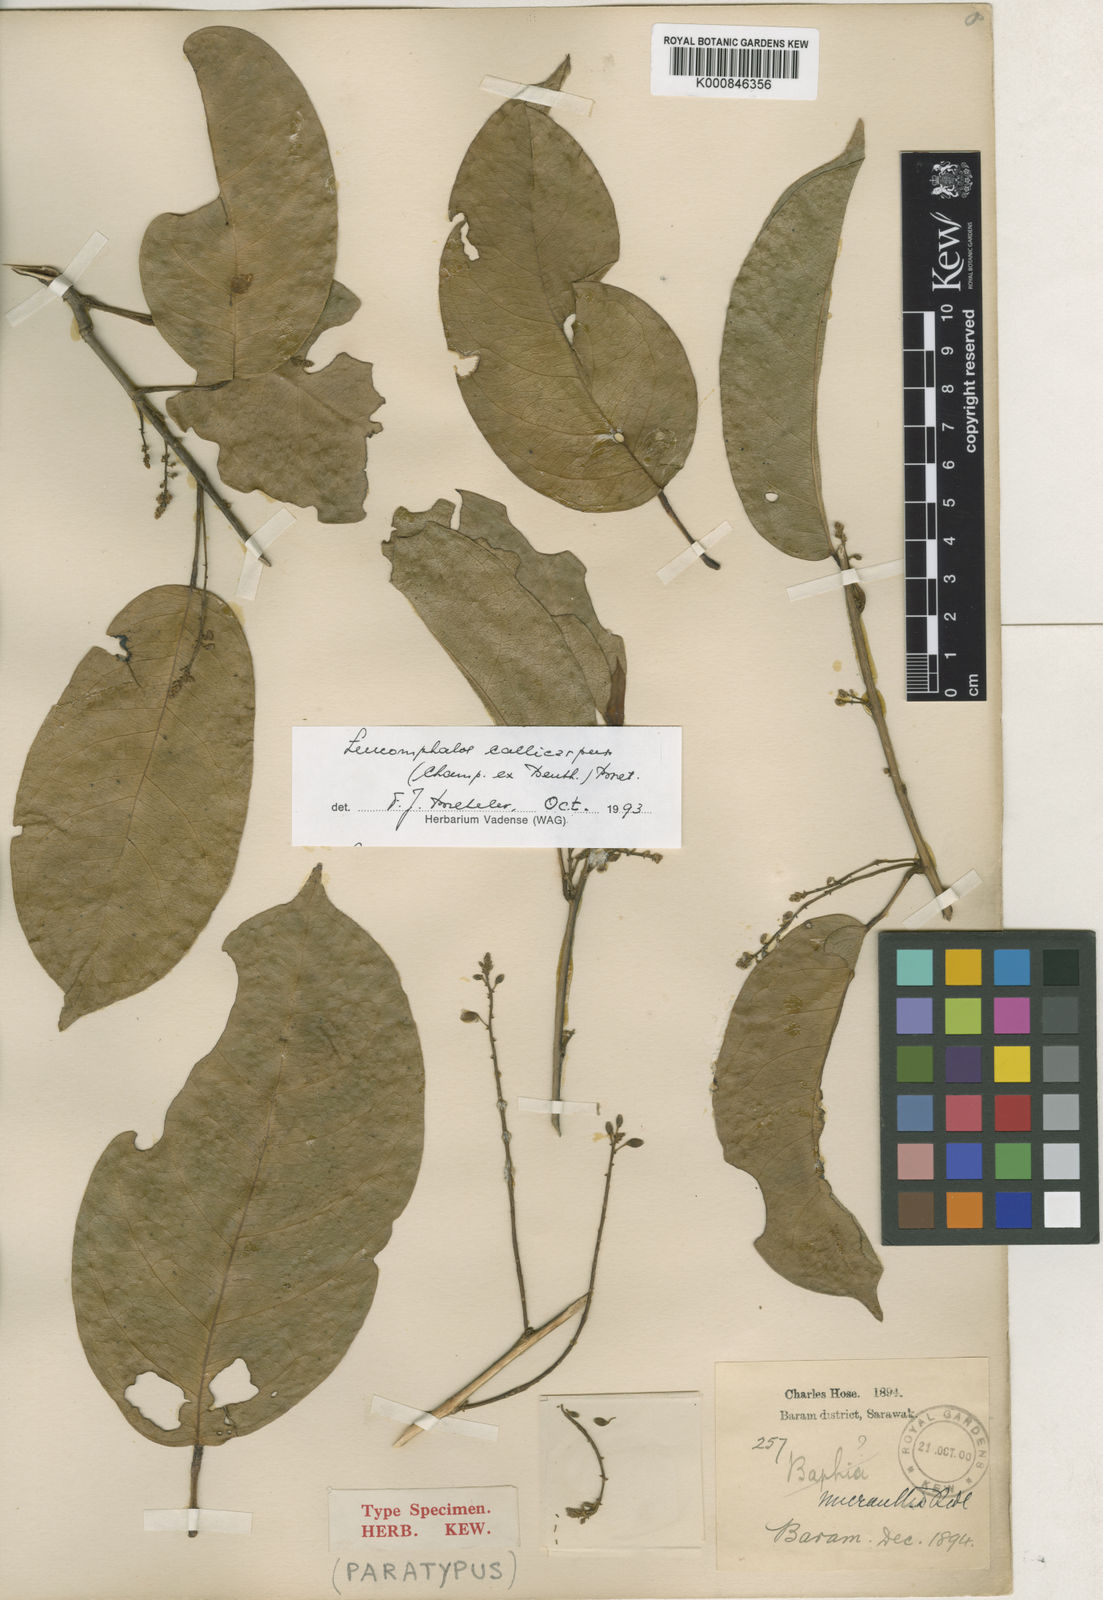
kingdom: Plantae
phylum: Tracheophyta
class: Magnoliopsida
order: Fabales
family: Fabaceae
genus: Bowringia
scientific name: Bowringia callicarpa
